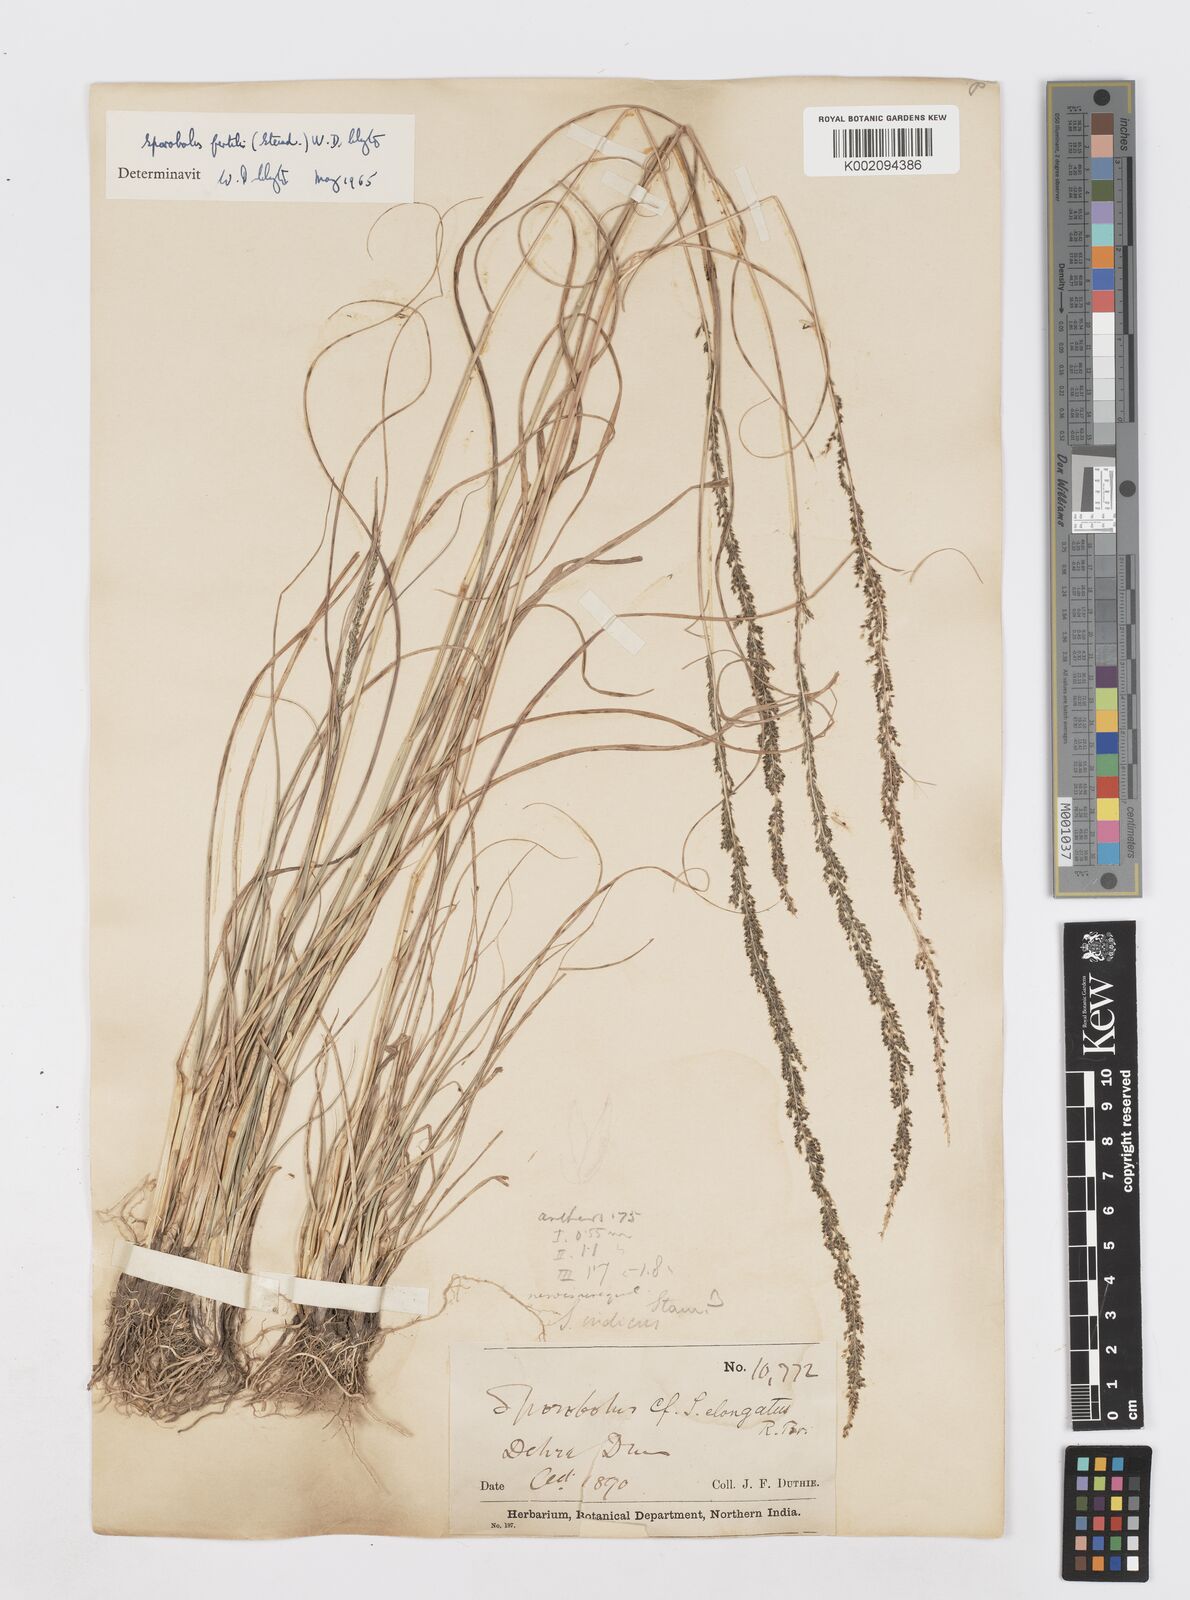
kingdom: Plantae
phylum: Tracheophyta
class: Liliopsida
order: Poales
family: Poaceae
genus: Sporobolus
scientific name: Sporobolus fertilis
